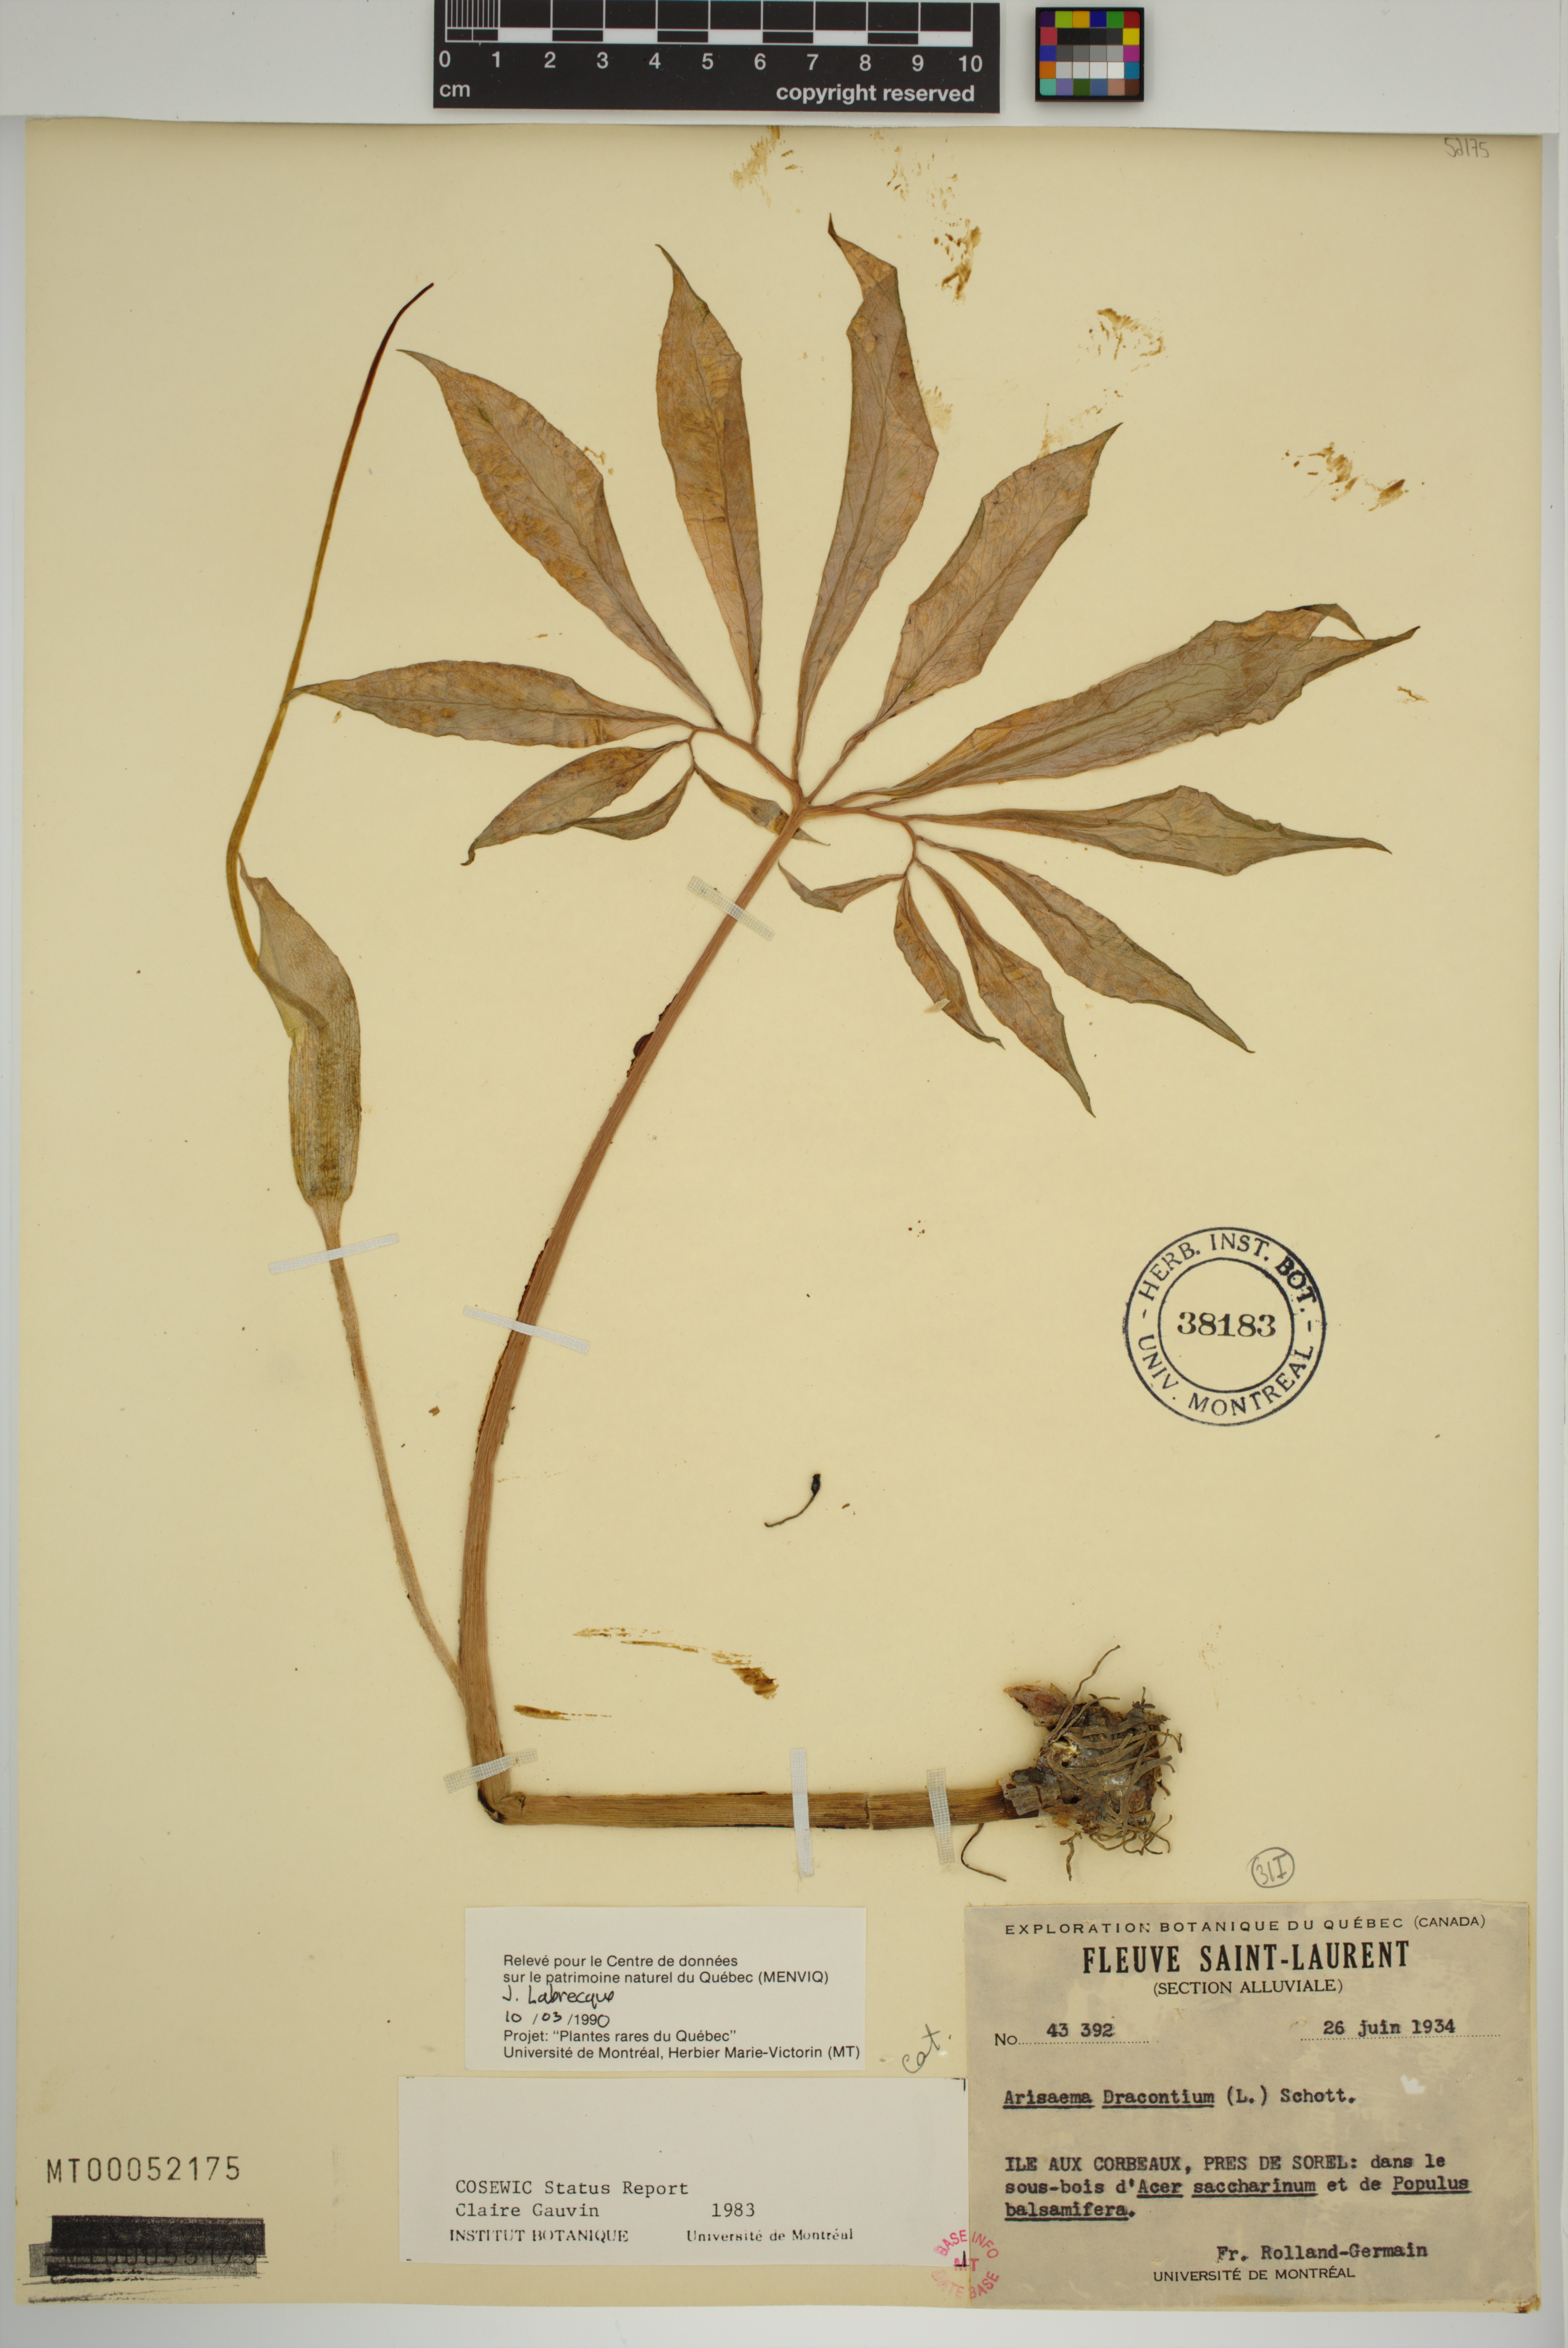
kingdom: Plantae
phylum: Tracheophyta
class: Liliopsida
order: Alismatales
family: Araceae
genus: Arisaema
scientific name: Arisaema dracontium
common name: Dragon-arum
